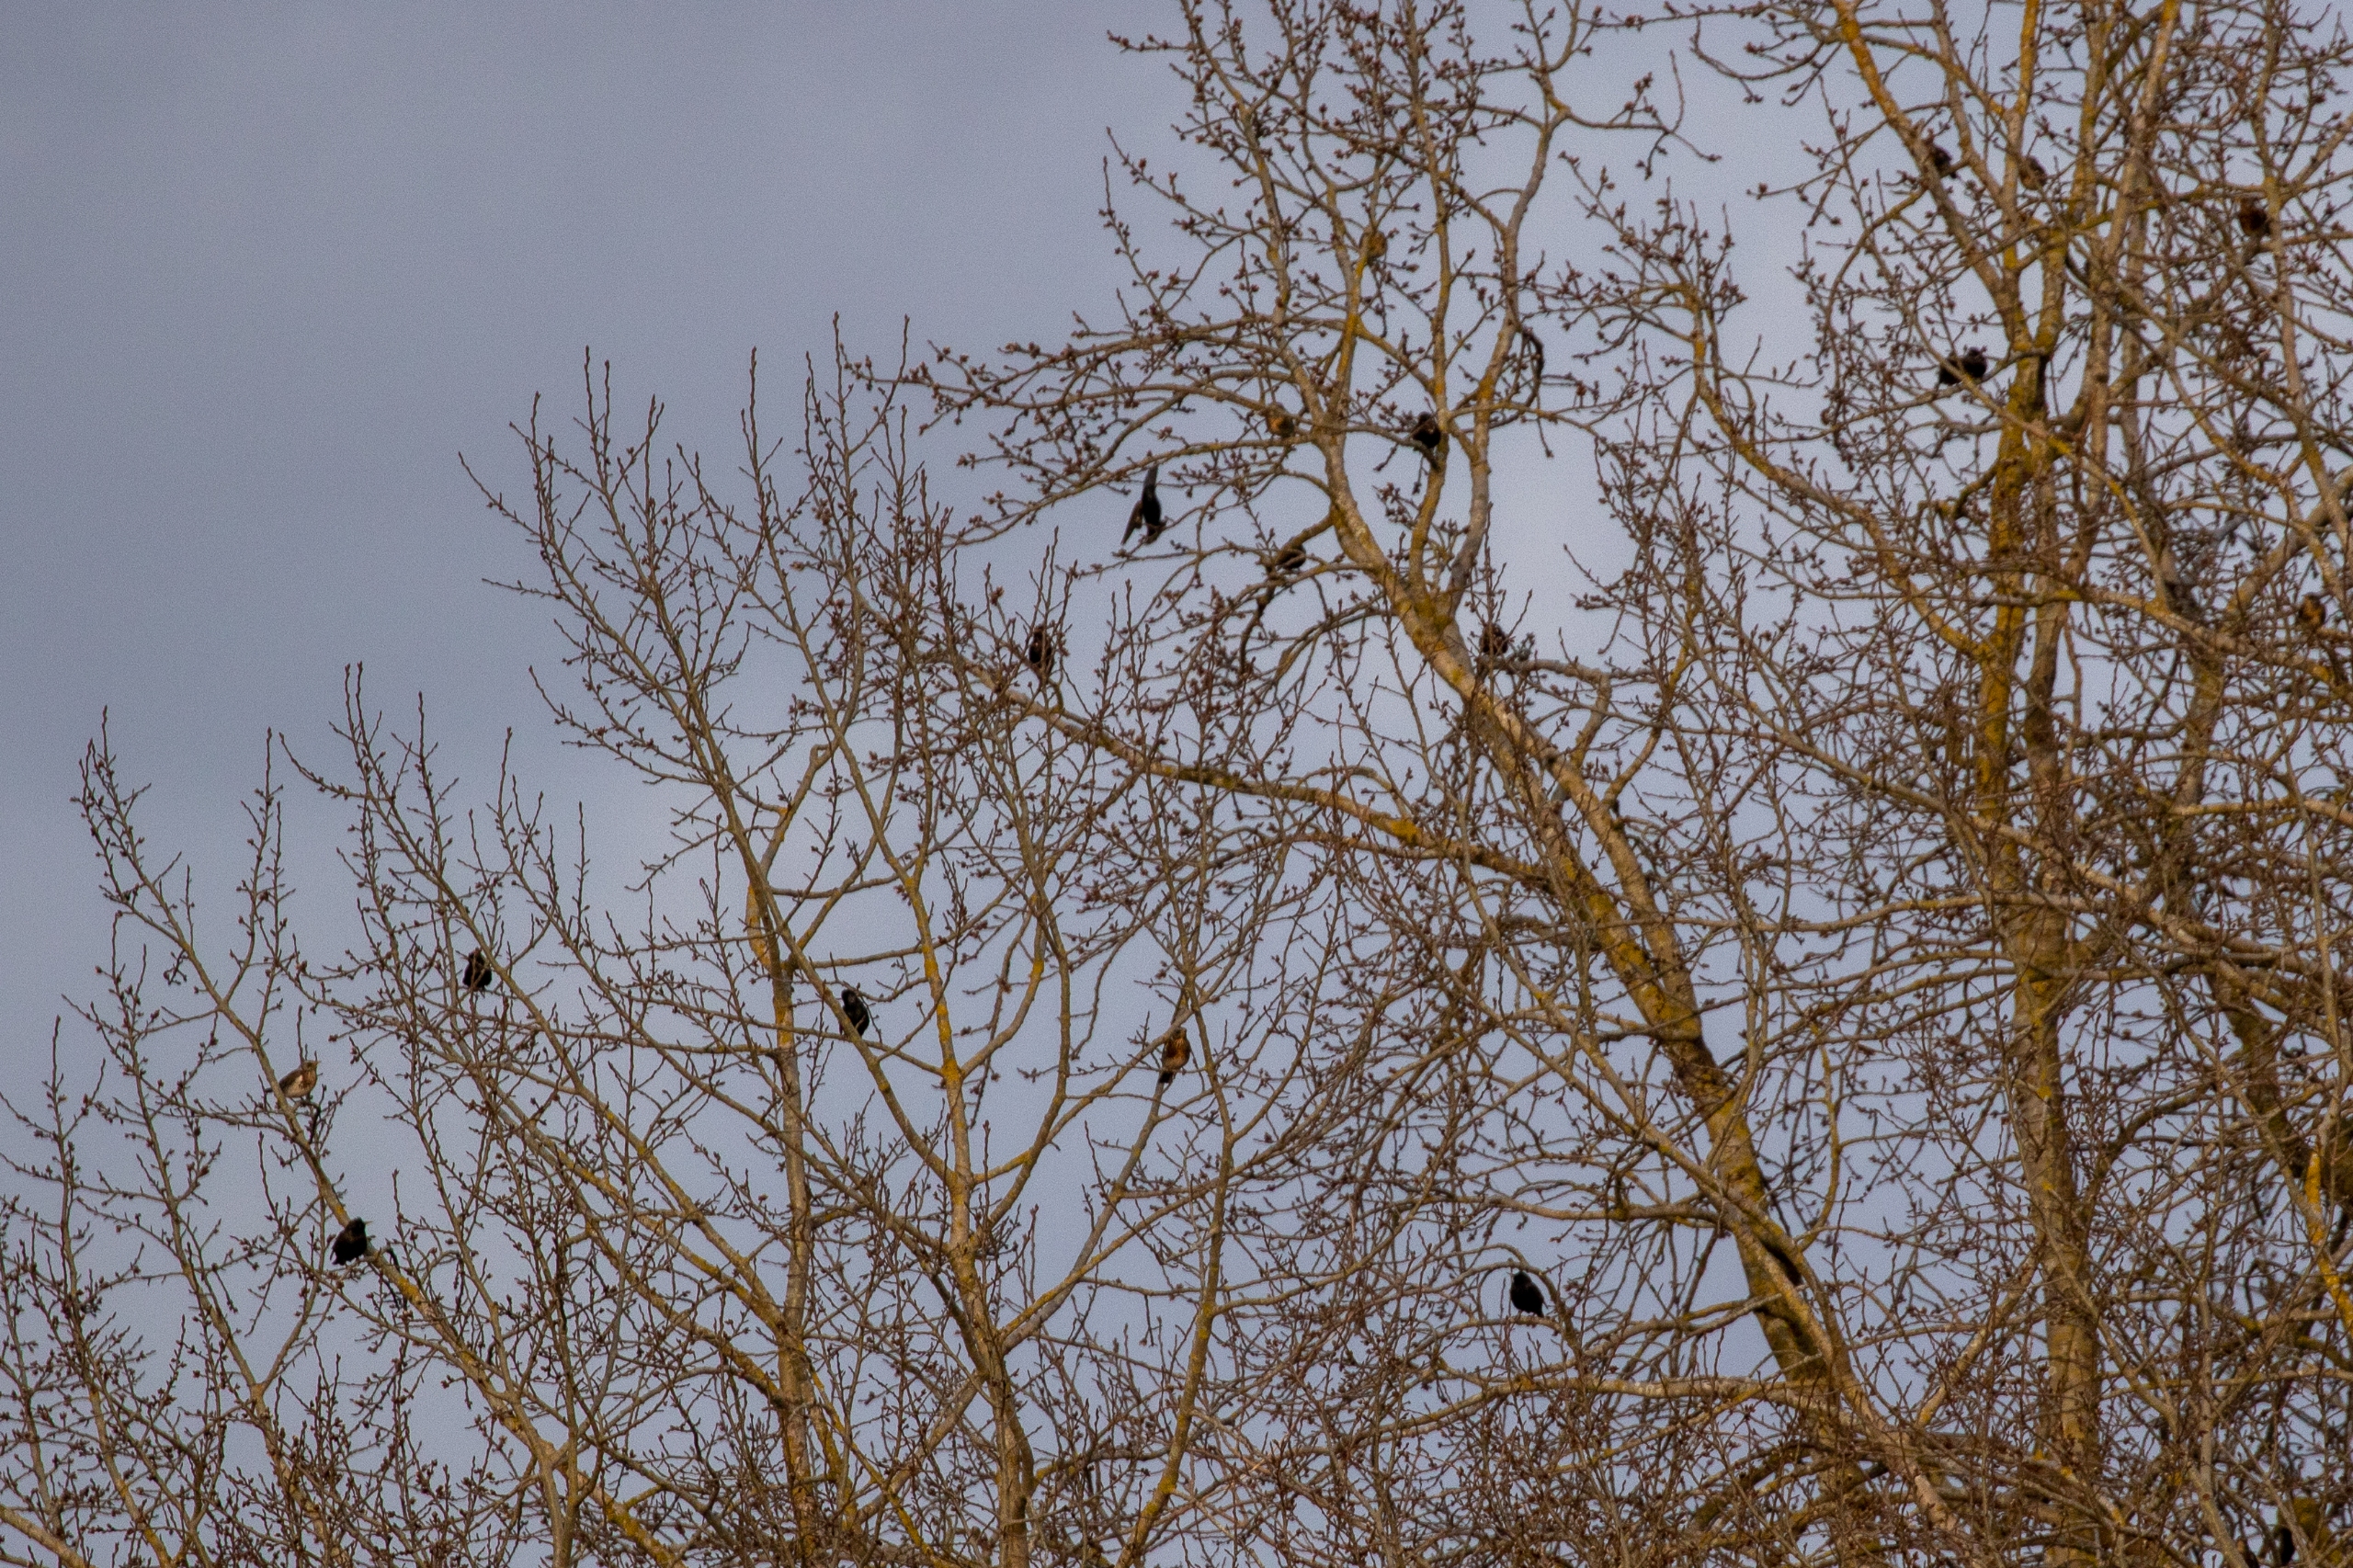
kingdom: Animalia
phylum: Chordata
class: Aves
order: Passeriformes
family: Sturnidae
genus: Sturnus
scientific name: Sturnus vulgaris
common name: Stær
